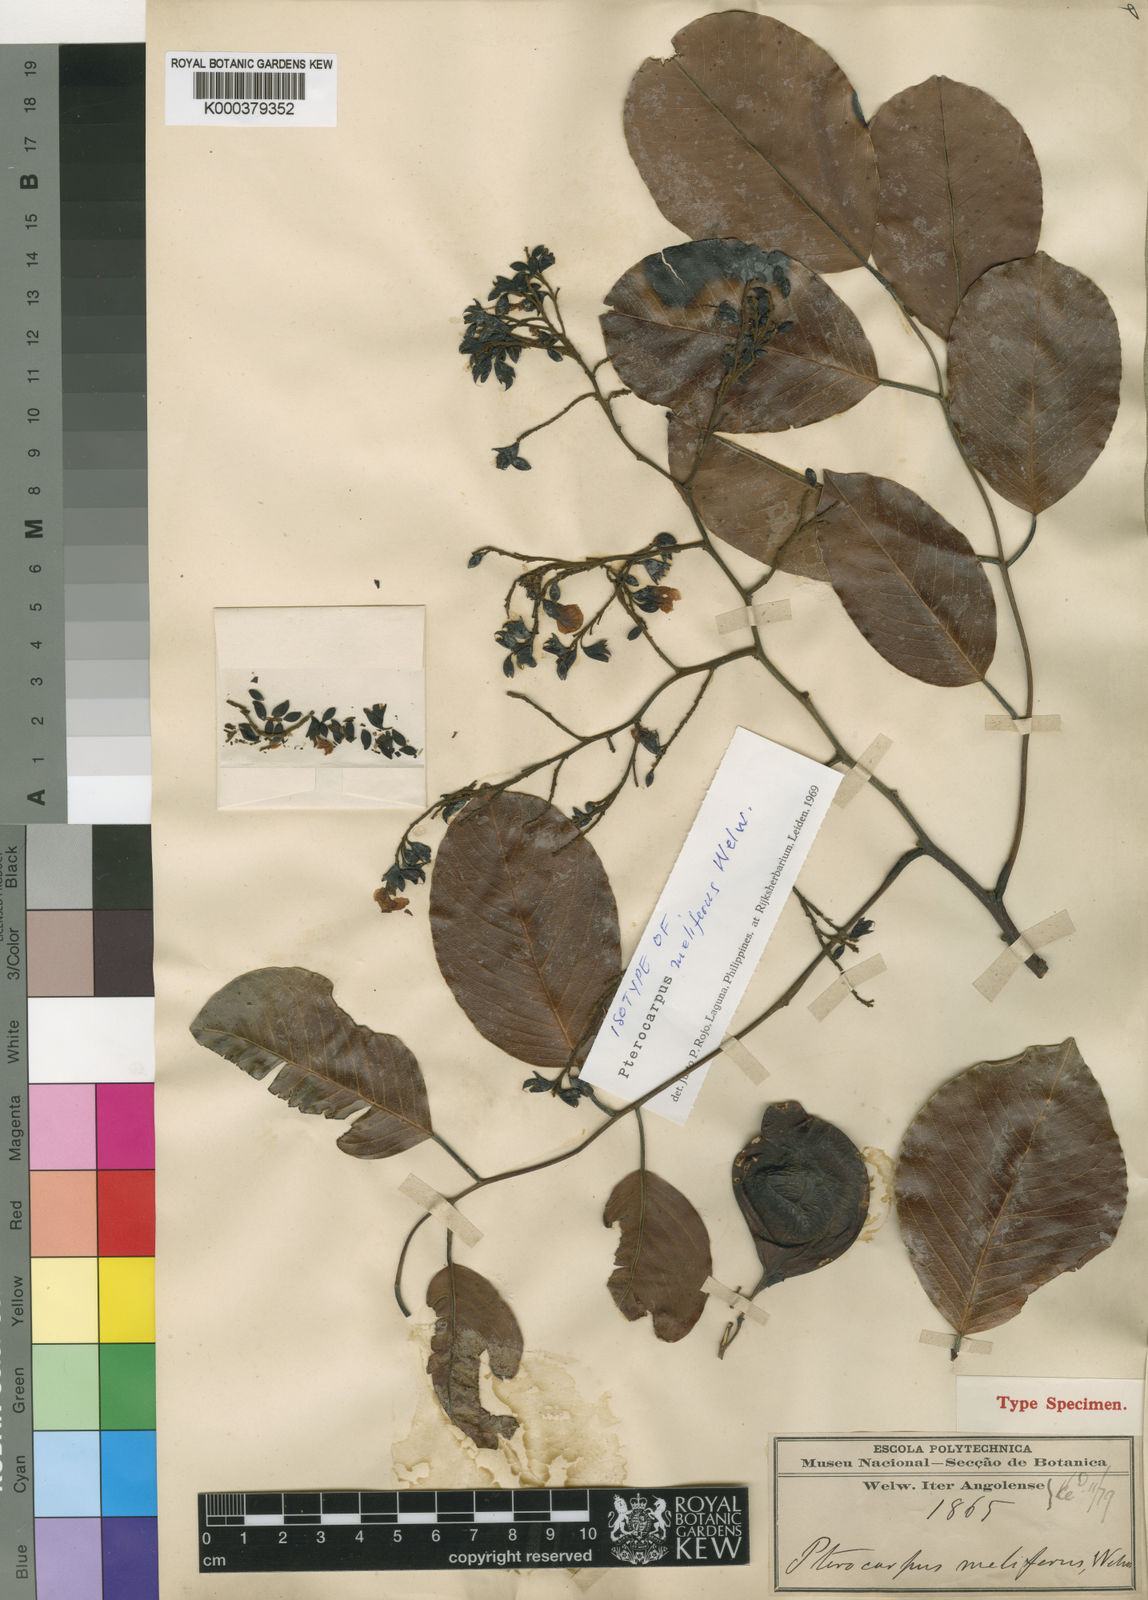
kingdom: Plantae
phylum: Tracheophyta
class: Magnoliopsida
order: Fabales
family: Fabaceae
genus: Pterocarpus
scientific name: Pterocarpus rotundifolius
